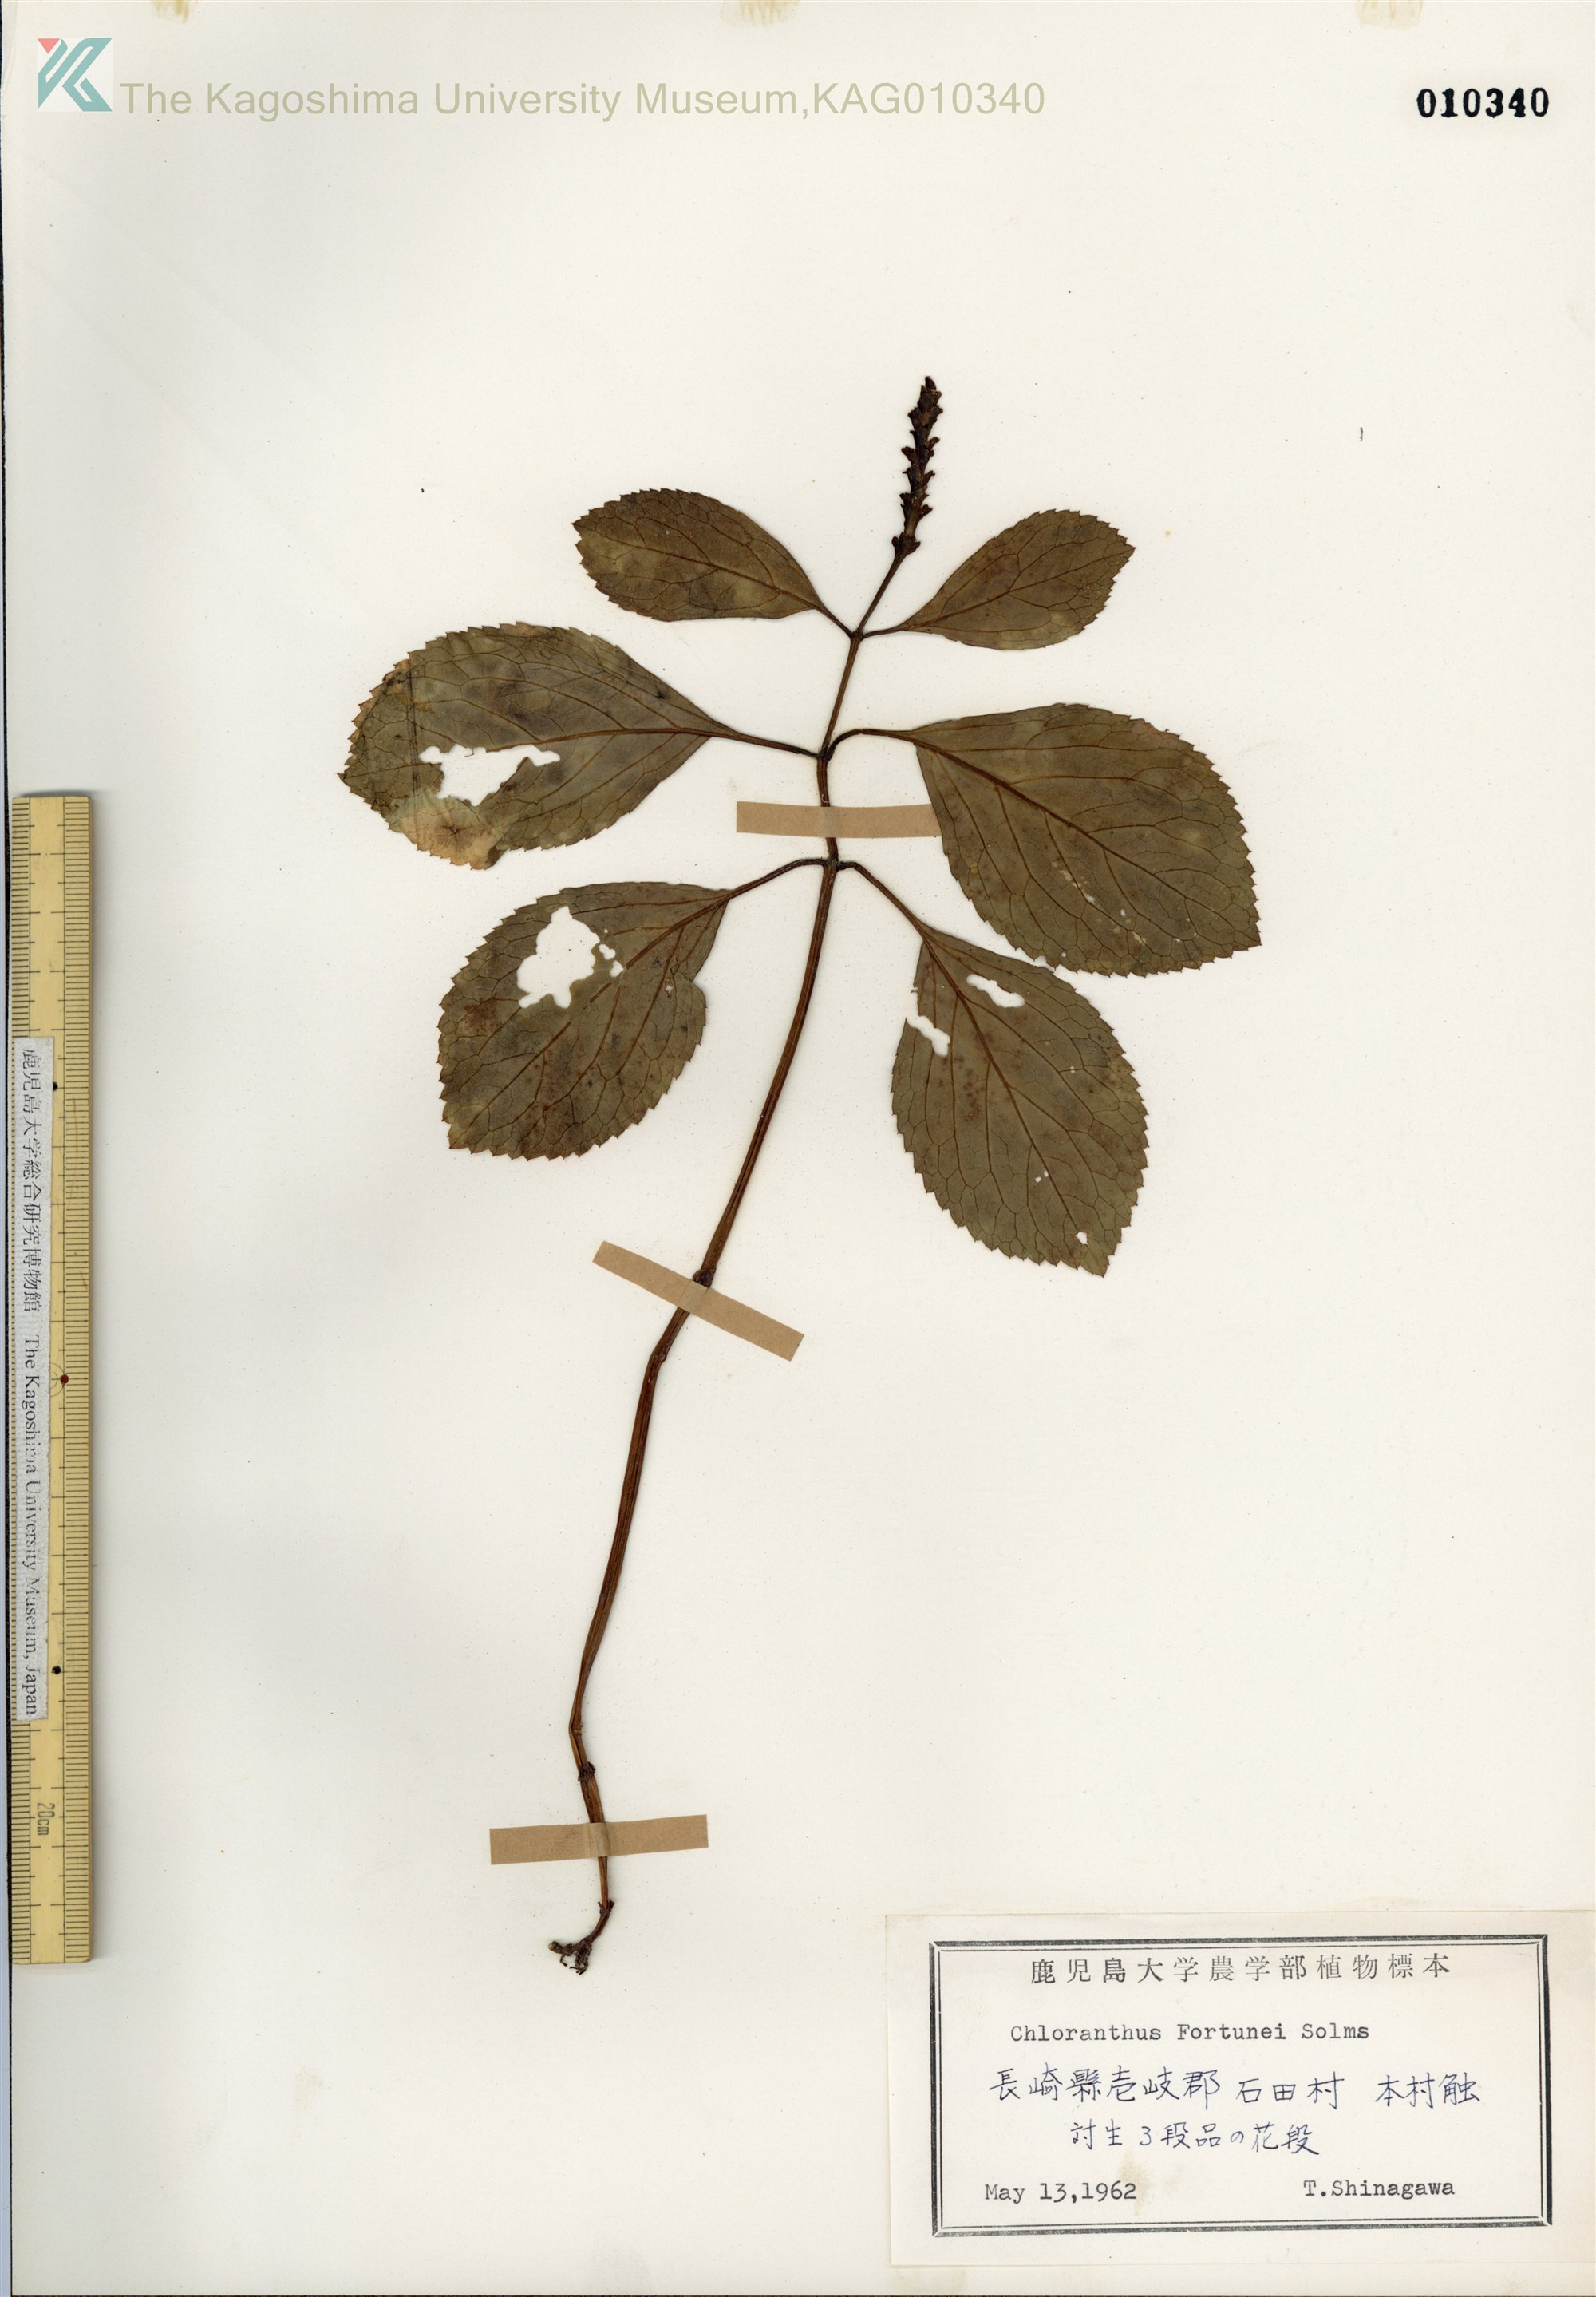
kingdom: Plantae
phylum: Tracheophyta
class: Magnoliopsida
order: Chloranthales
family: Chloranthaceae
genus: Chloranthus
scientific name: Chloranthus fortunei
